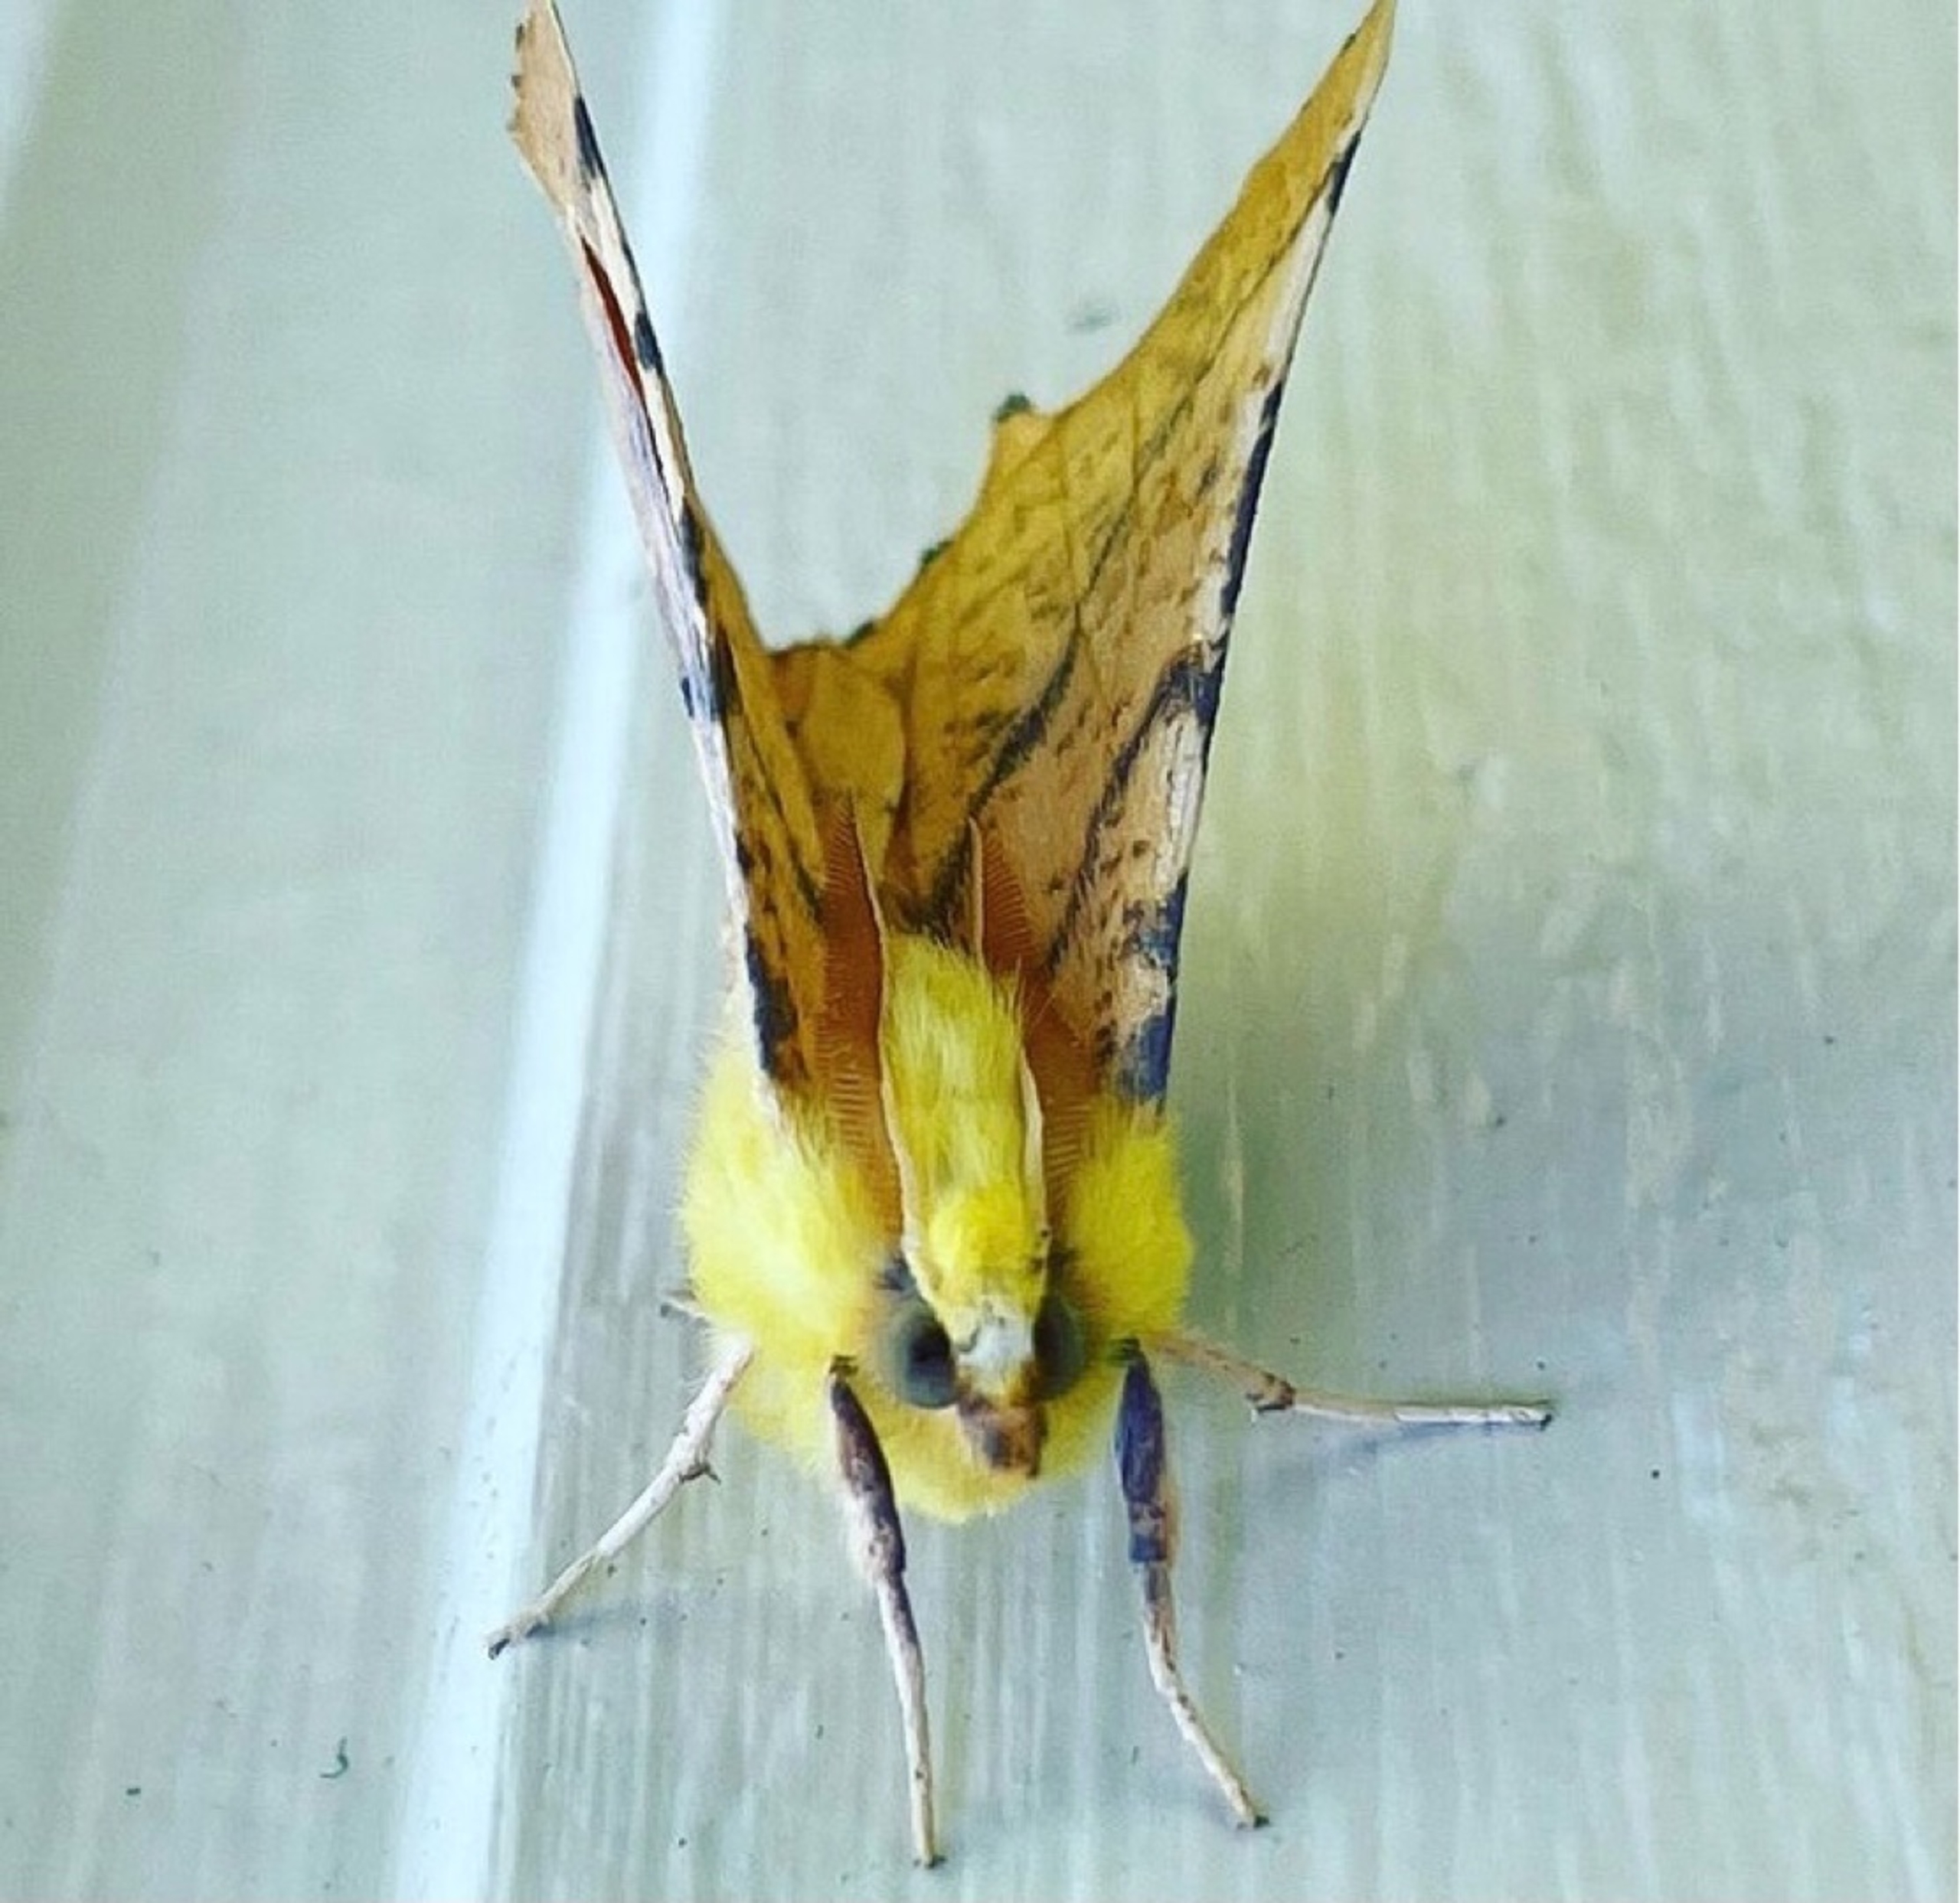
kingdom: Animalia
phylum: Arthropoda
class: Insecta
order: Lepidoptera
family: Geometridae
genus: Ennomos
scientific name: Ennomos alniaria
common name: Elle-tandmåler
